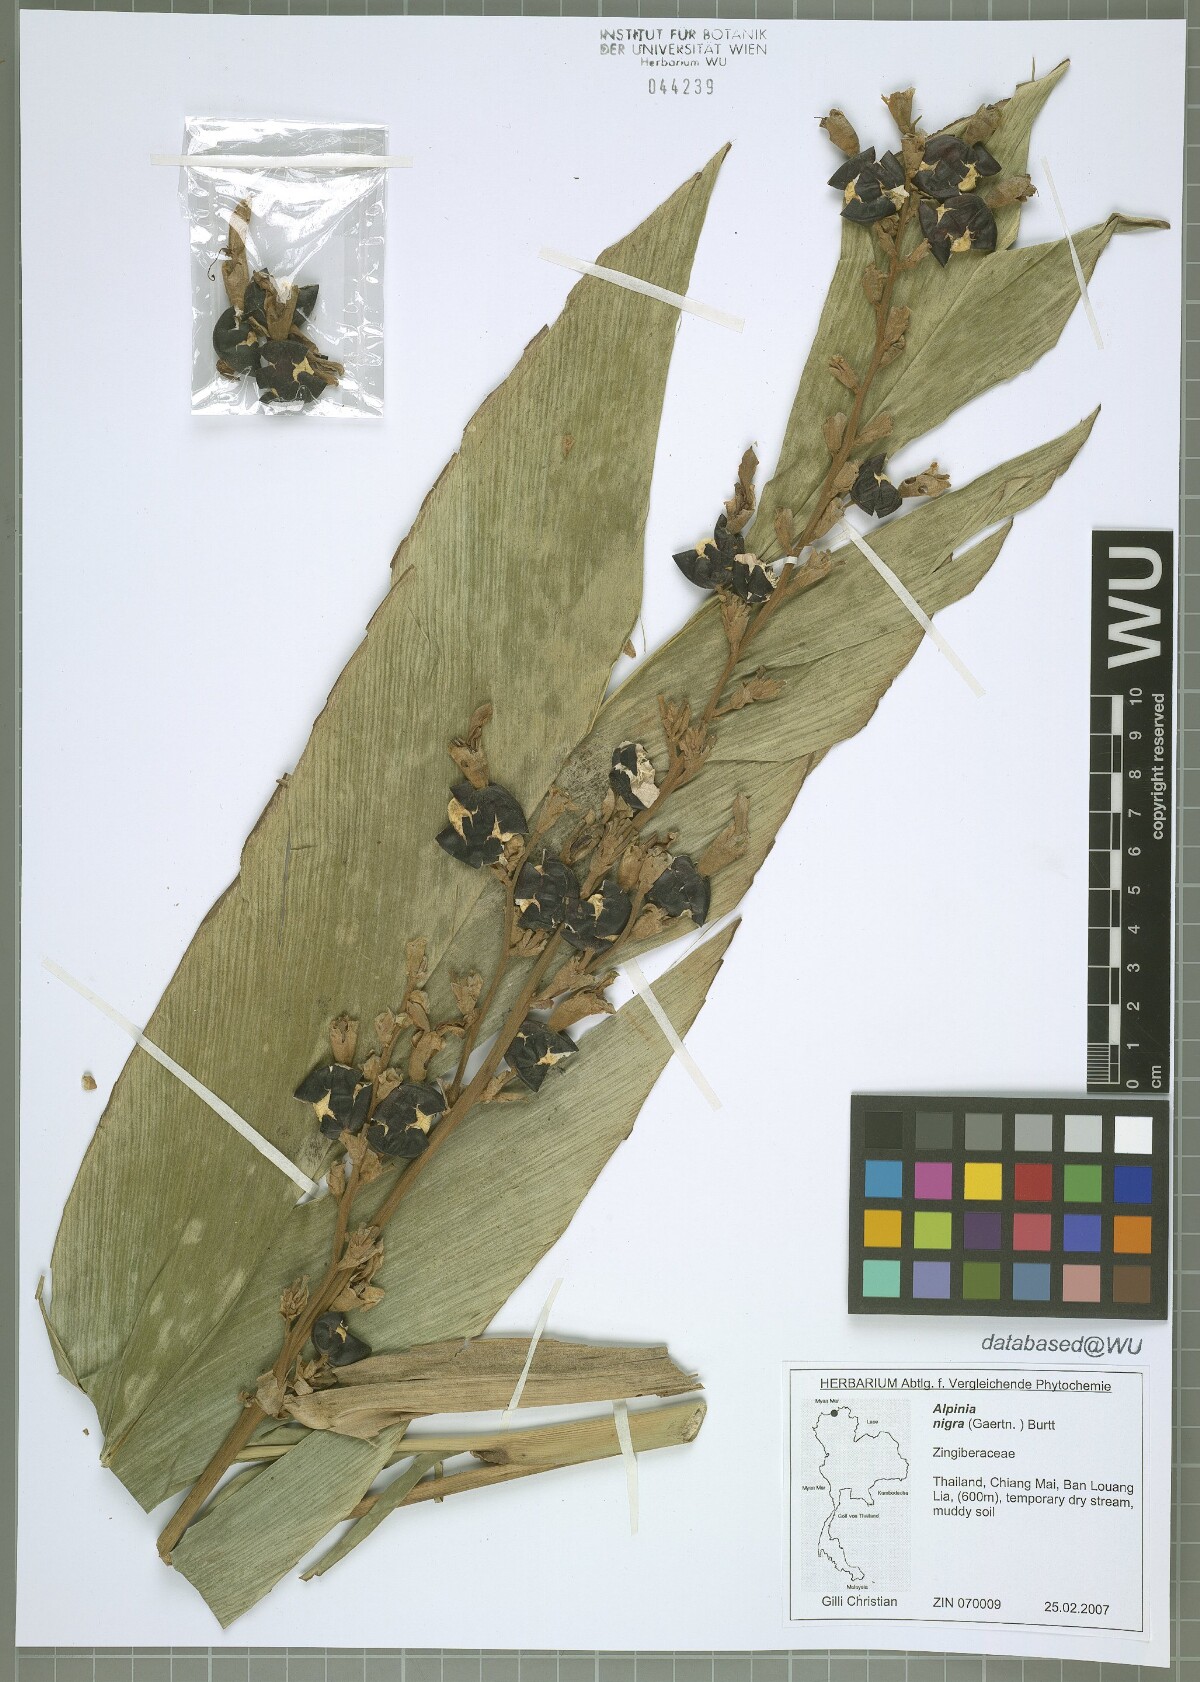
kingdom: Plantae
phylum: Tracheophyta
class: Liliopsida
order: Zingiberales
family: Zingiberaceae
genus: Alpinia
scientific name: Alpinia nigra
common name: Black fruited galanga
